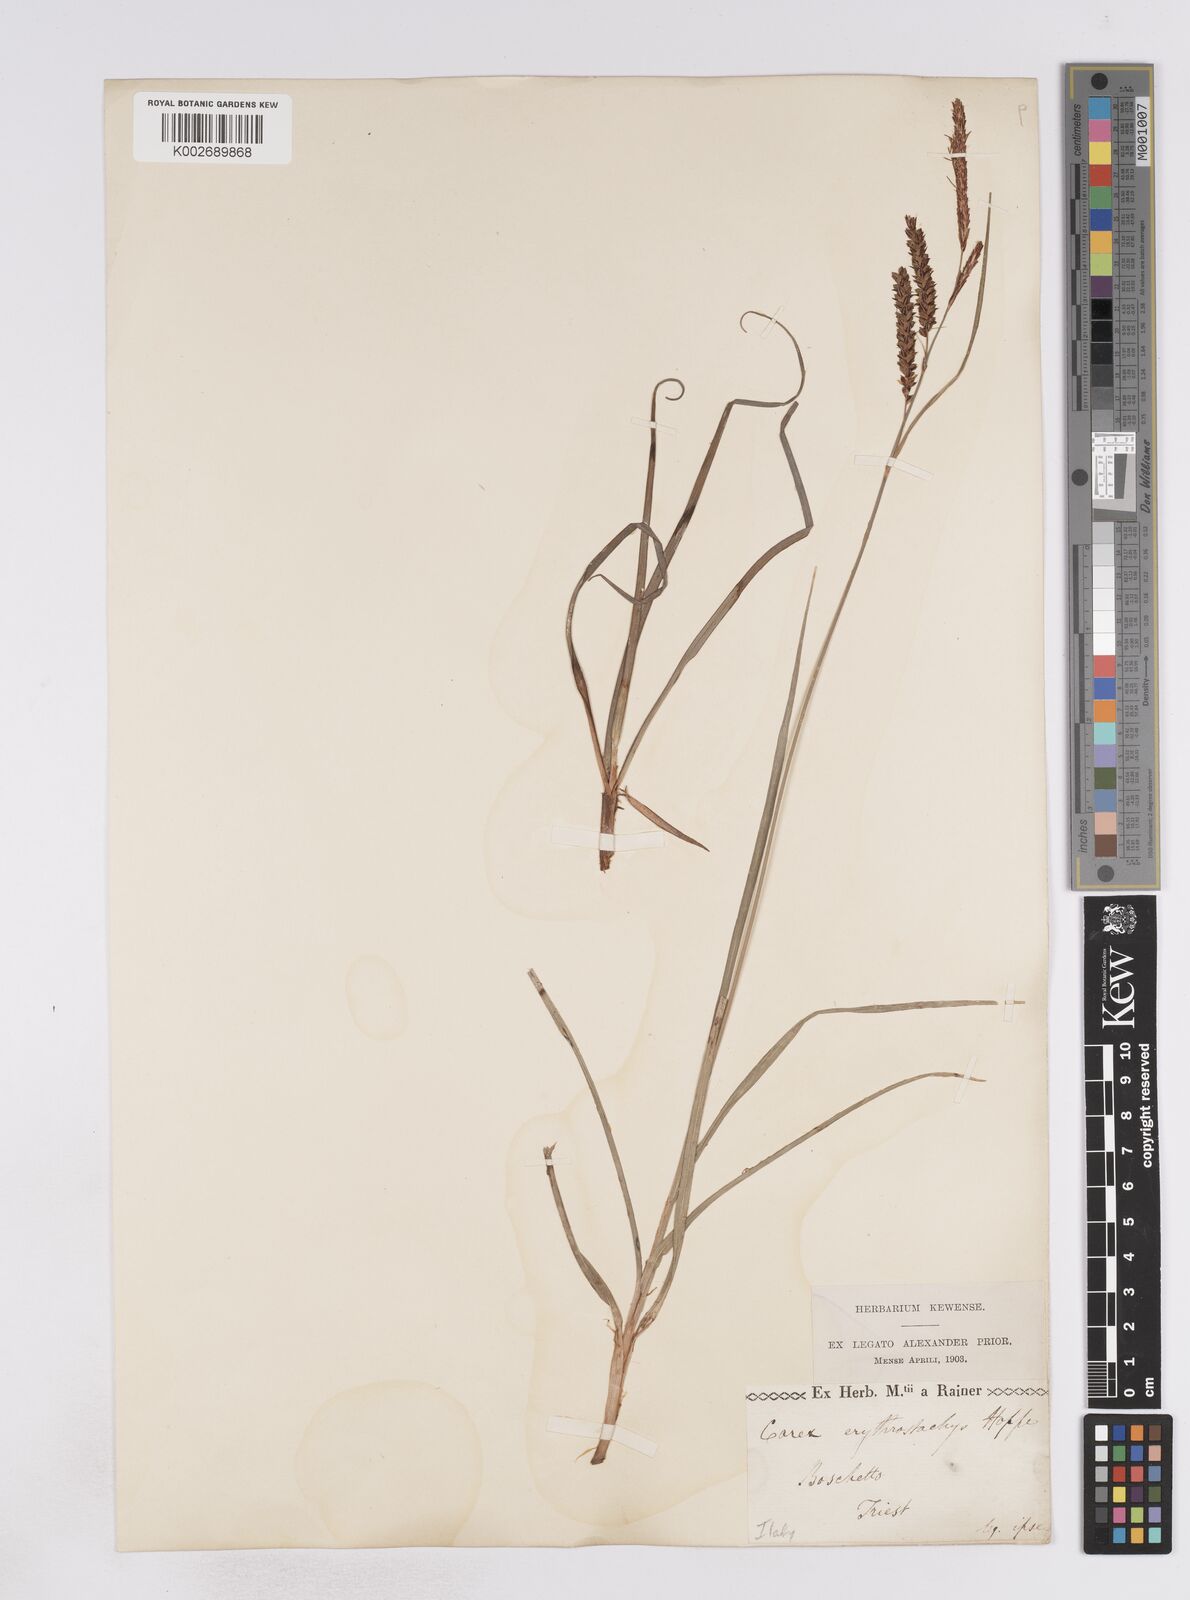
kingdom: Plantae
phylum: Tracheophyta
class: Liliopsida
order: Poales
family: Cyperaceae
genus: Carex
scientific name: Carex flacca
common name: Glaucous sedge
